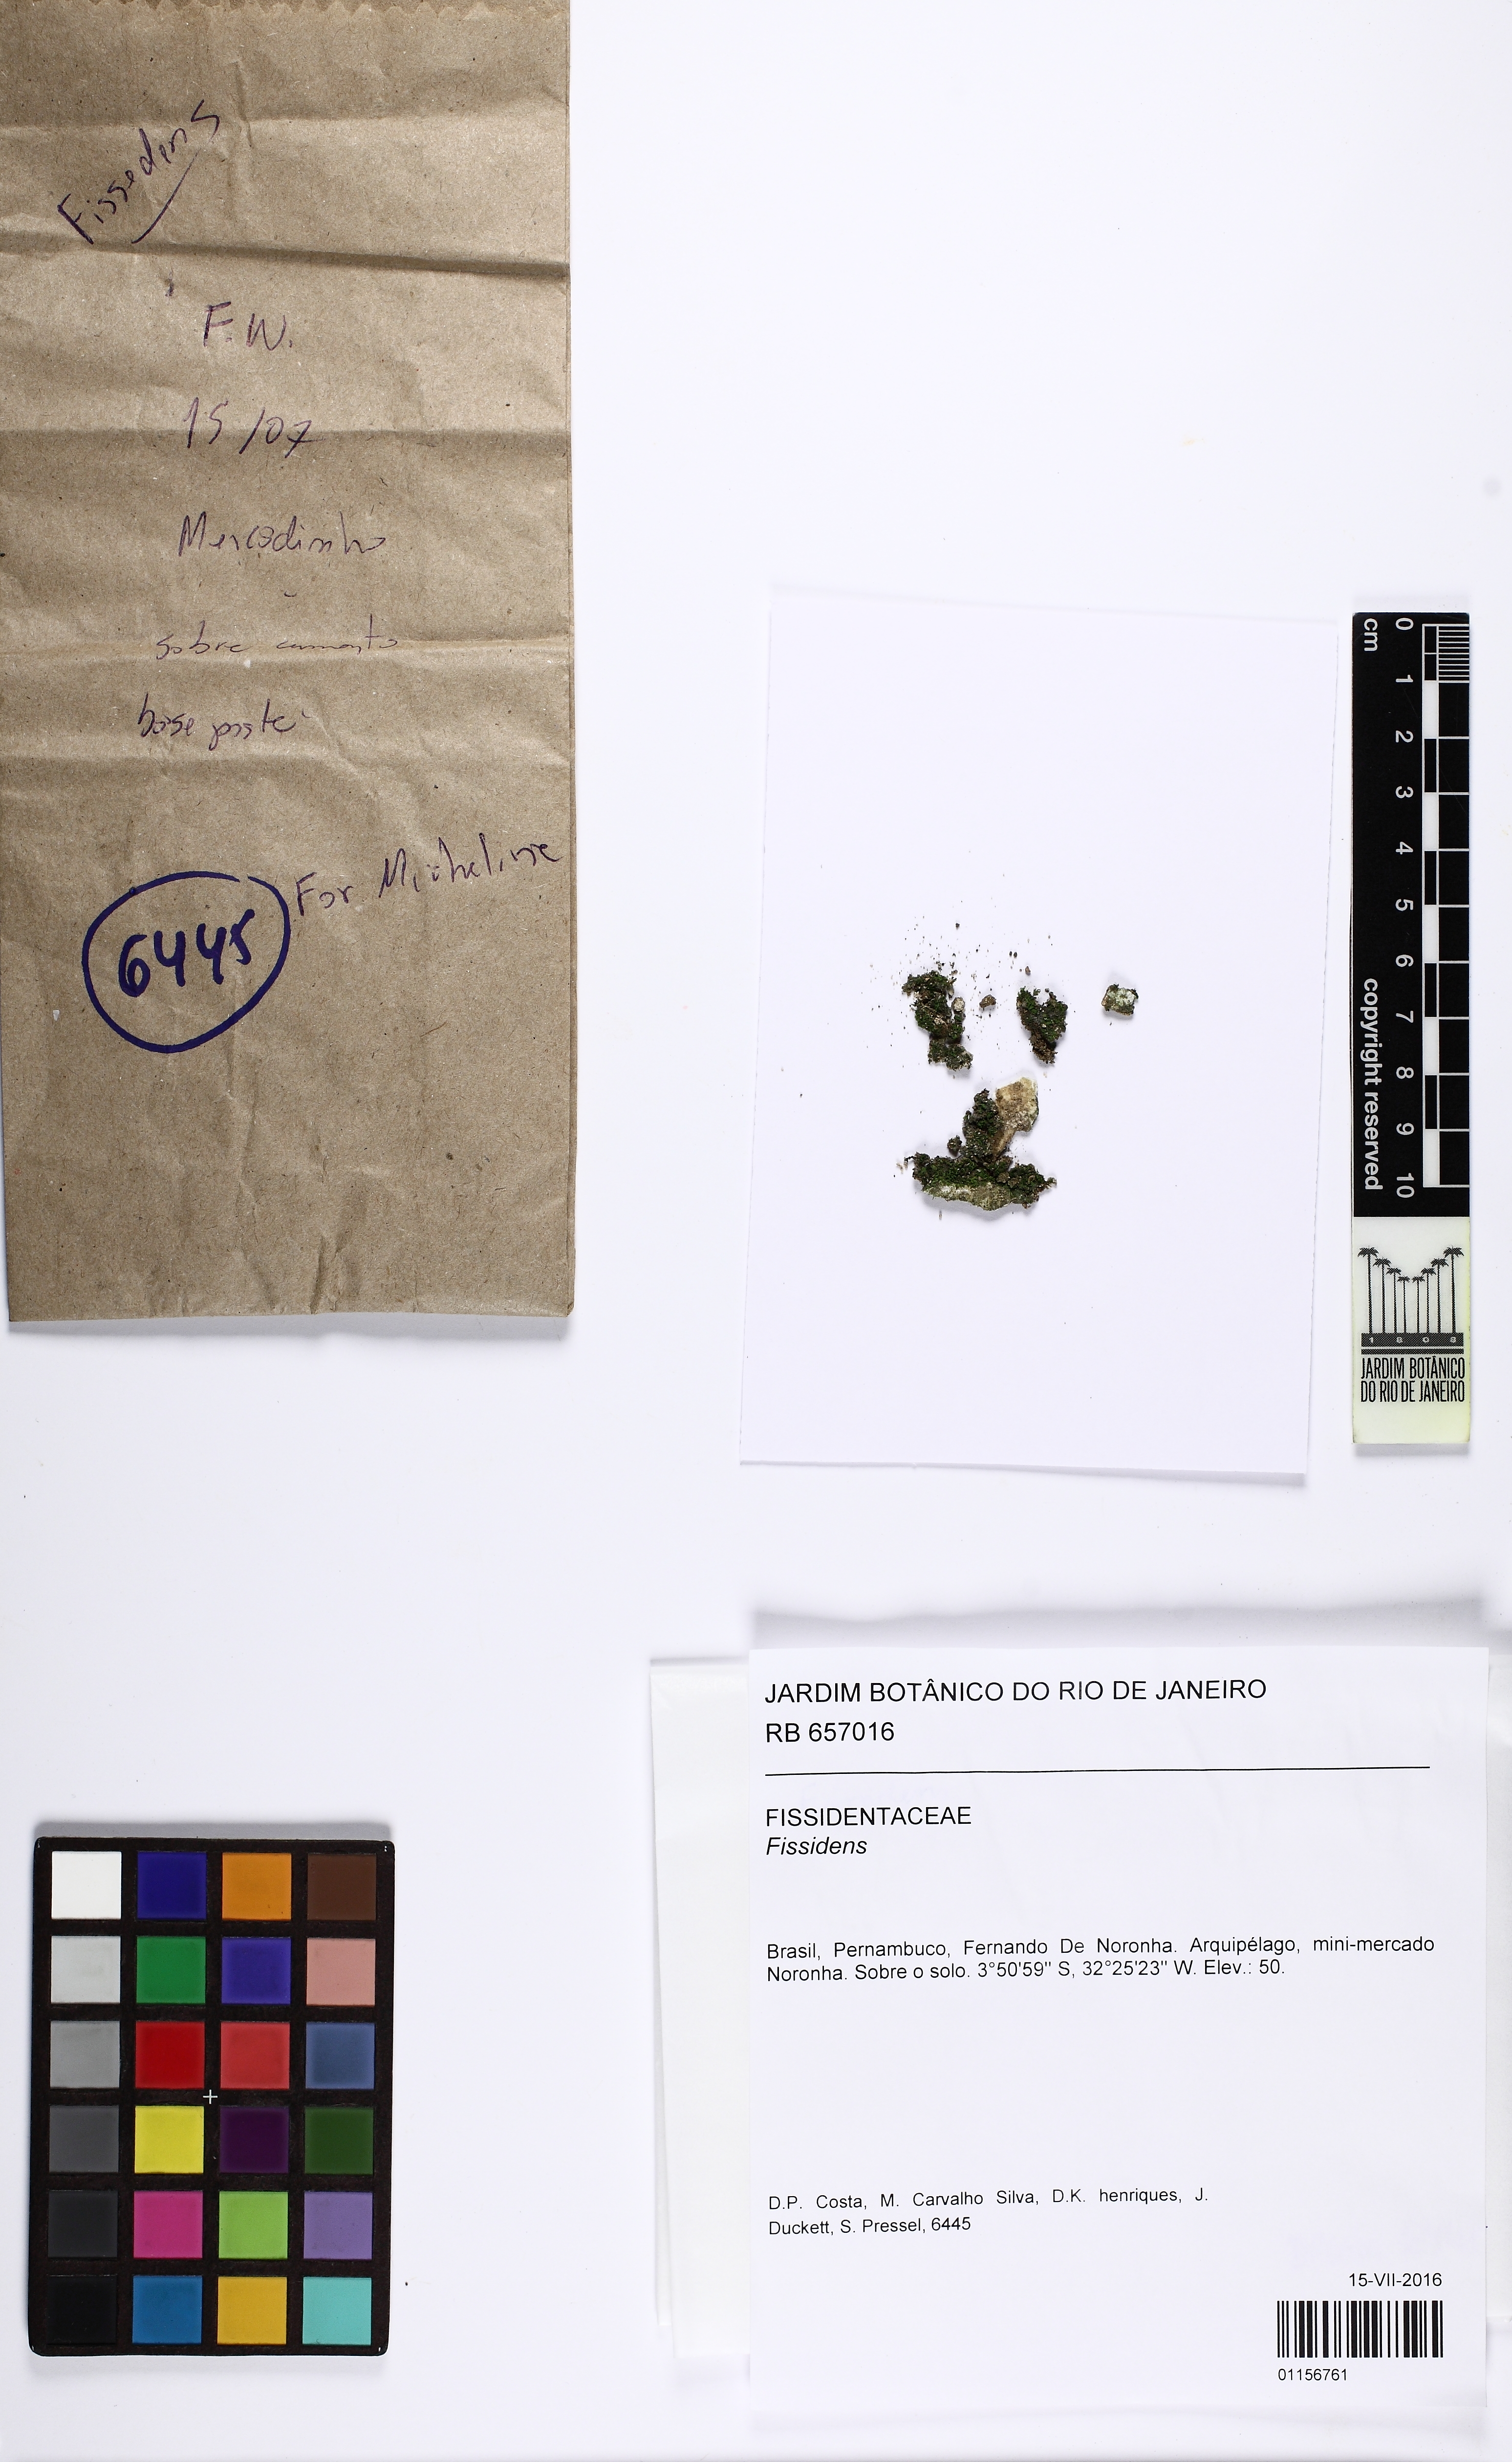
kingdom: Plantae
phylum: Bryophyta
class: Bryopsida
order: Dicranales
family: Fissidentaceae
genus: Fissidens
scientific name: Fissidens
